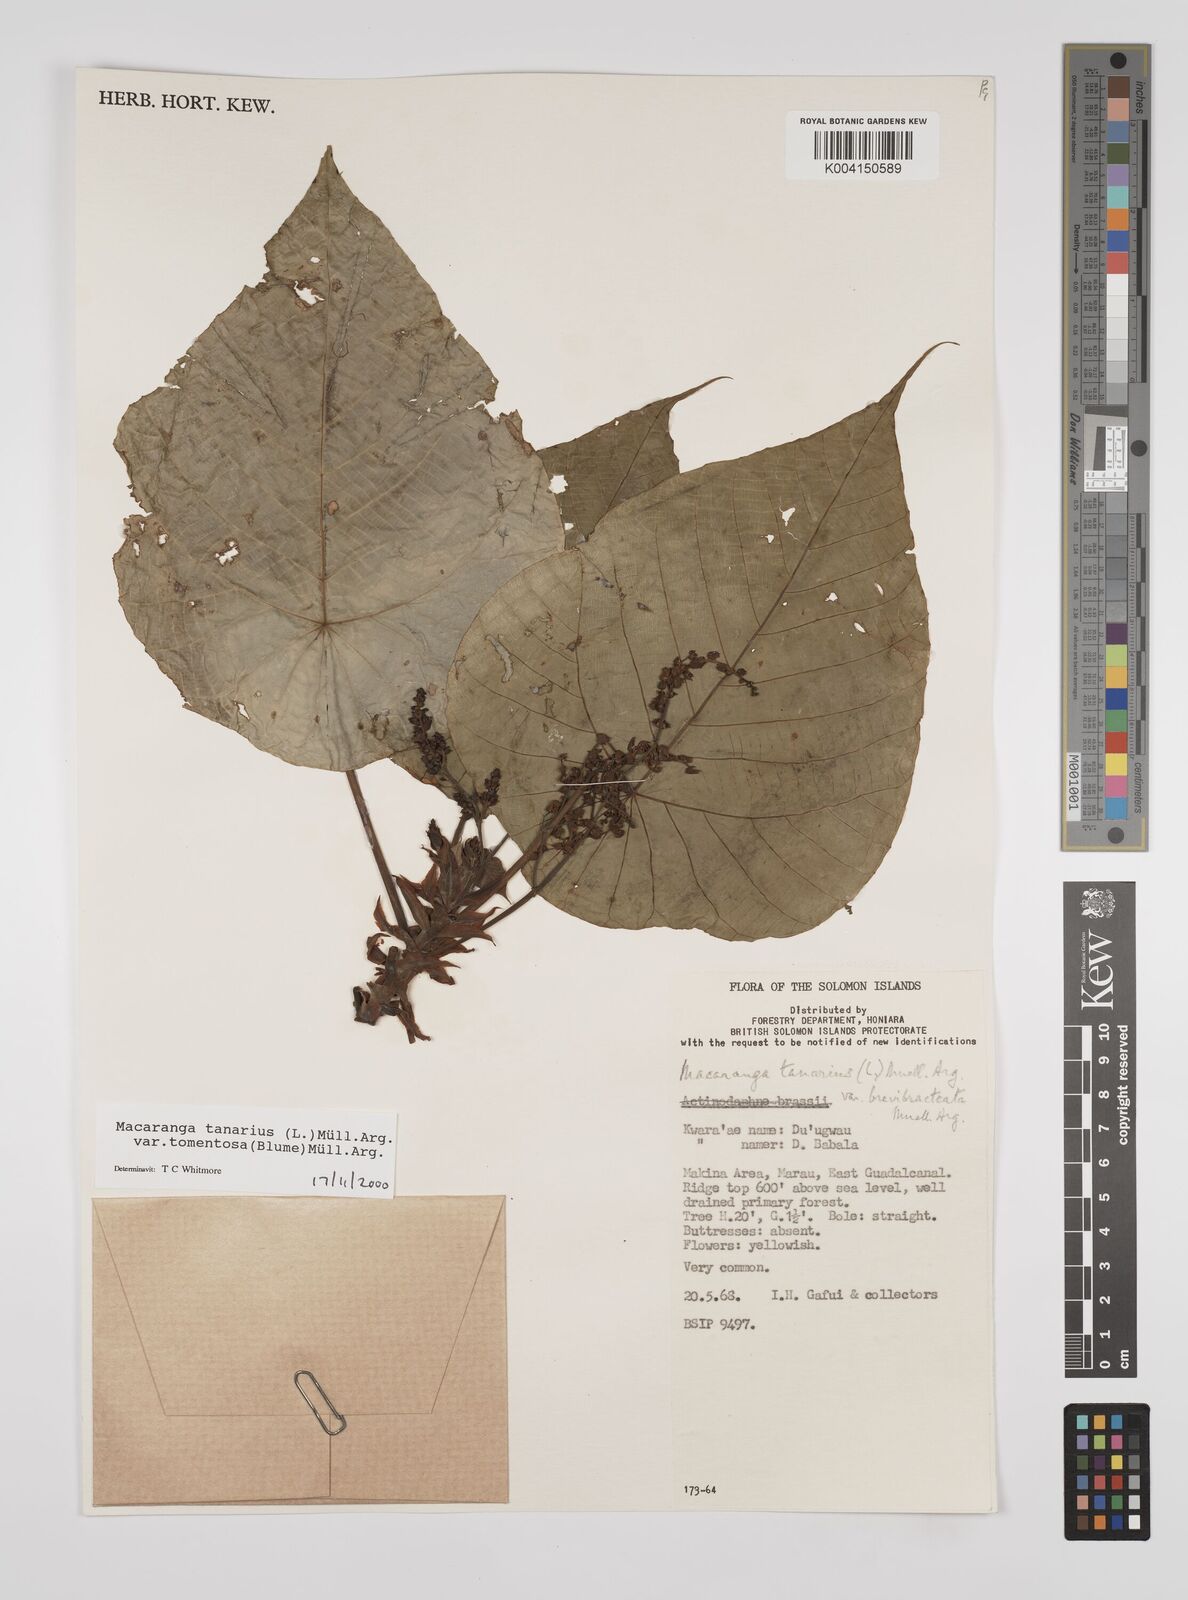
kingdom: Plantae
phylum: Tracheophyta
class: Magnoliopsida
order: Malpighiales
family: Euphorbiaceae
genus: Macaranga
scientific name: Macaranga tanarius
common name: Parasol leaf tree
